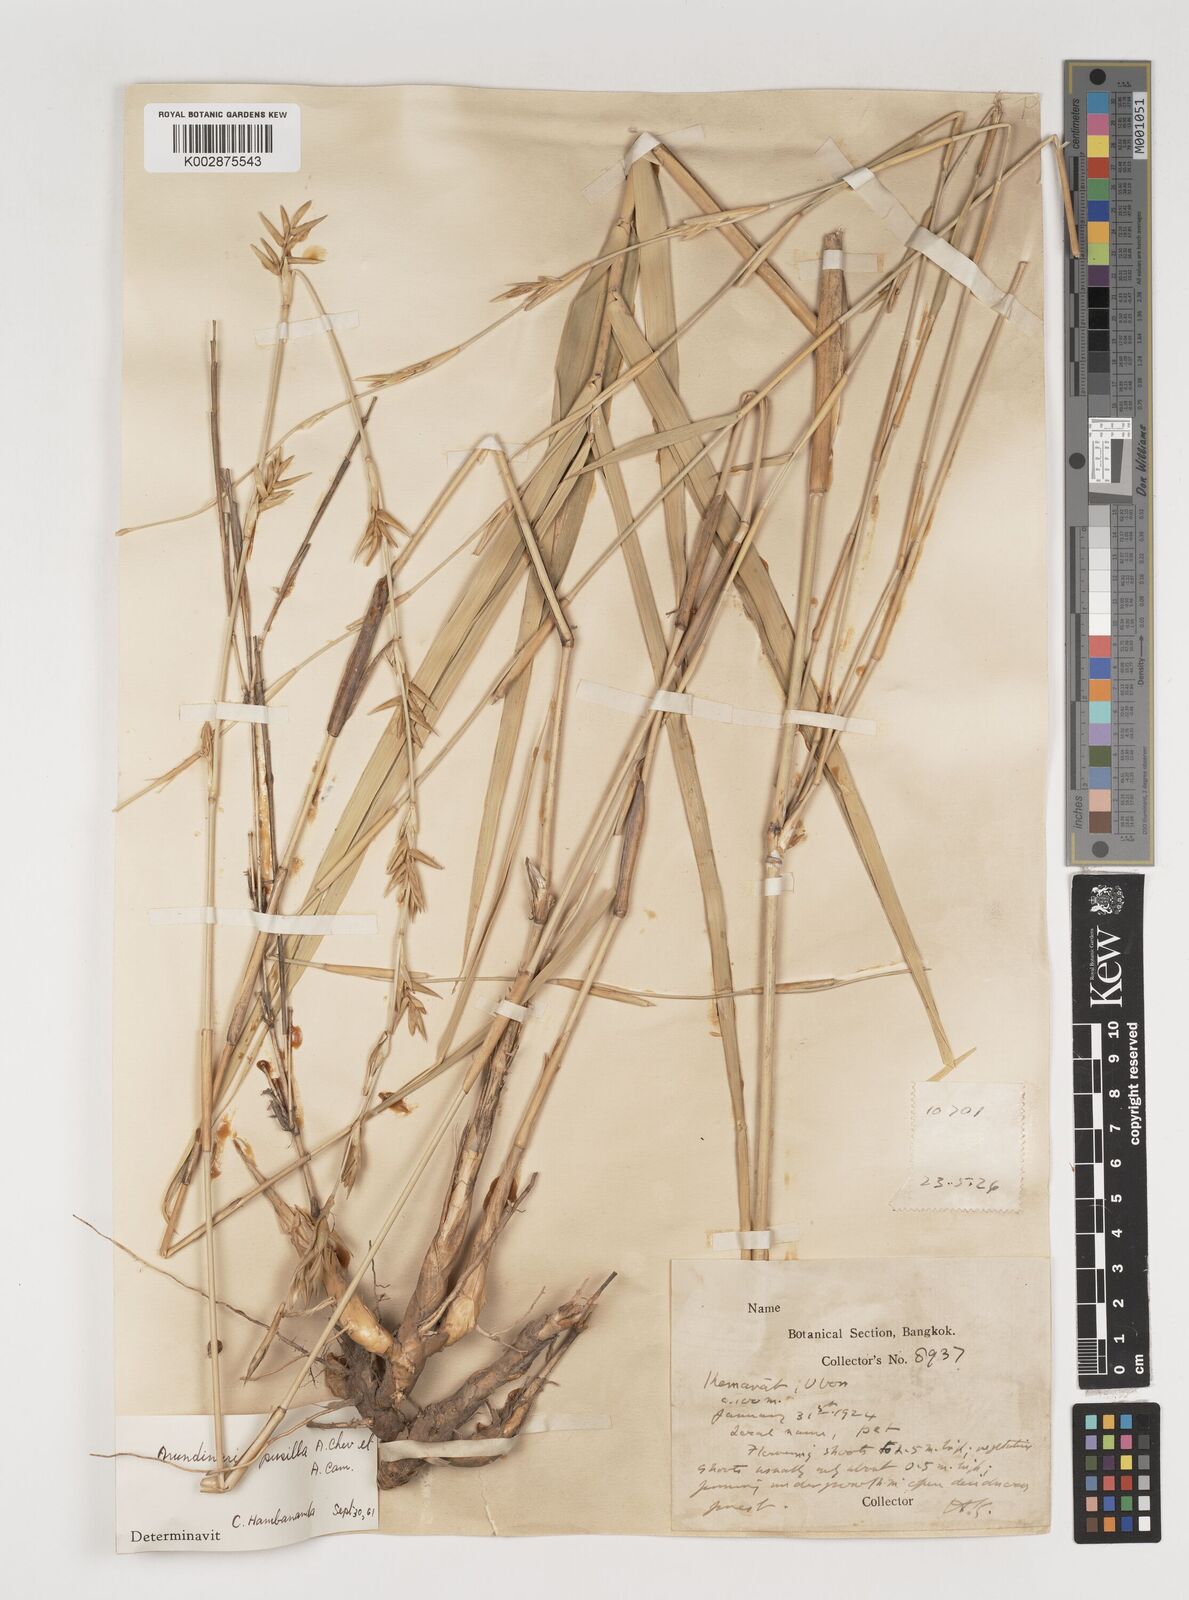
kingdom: Plantae
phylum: Tracheophyta
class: Liliopsida
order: Poales
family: Poaceae
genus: Vietnamosasa
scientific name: Vietnamosasa pusilla
